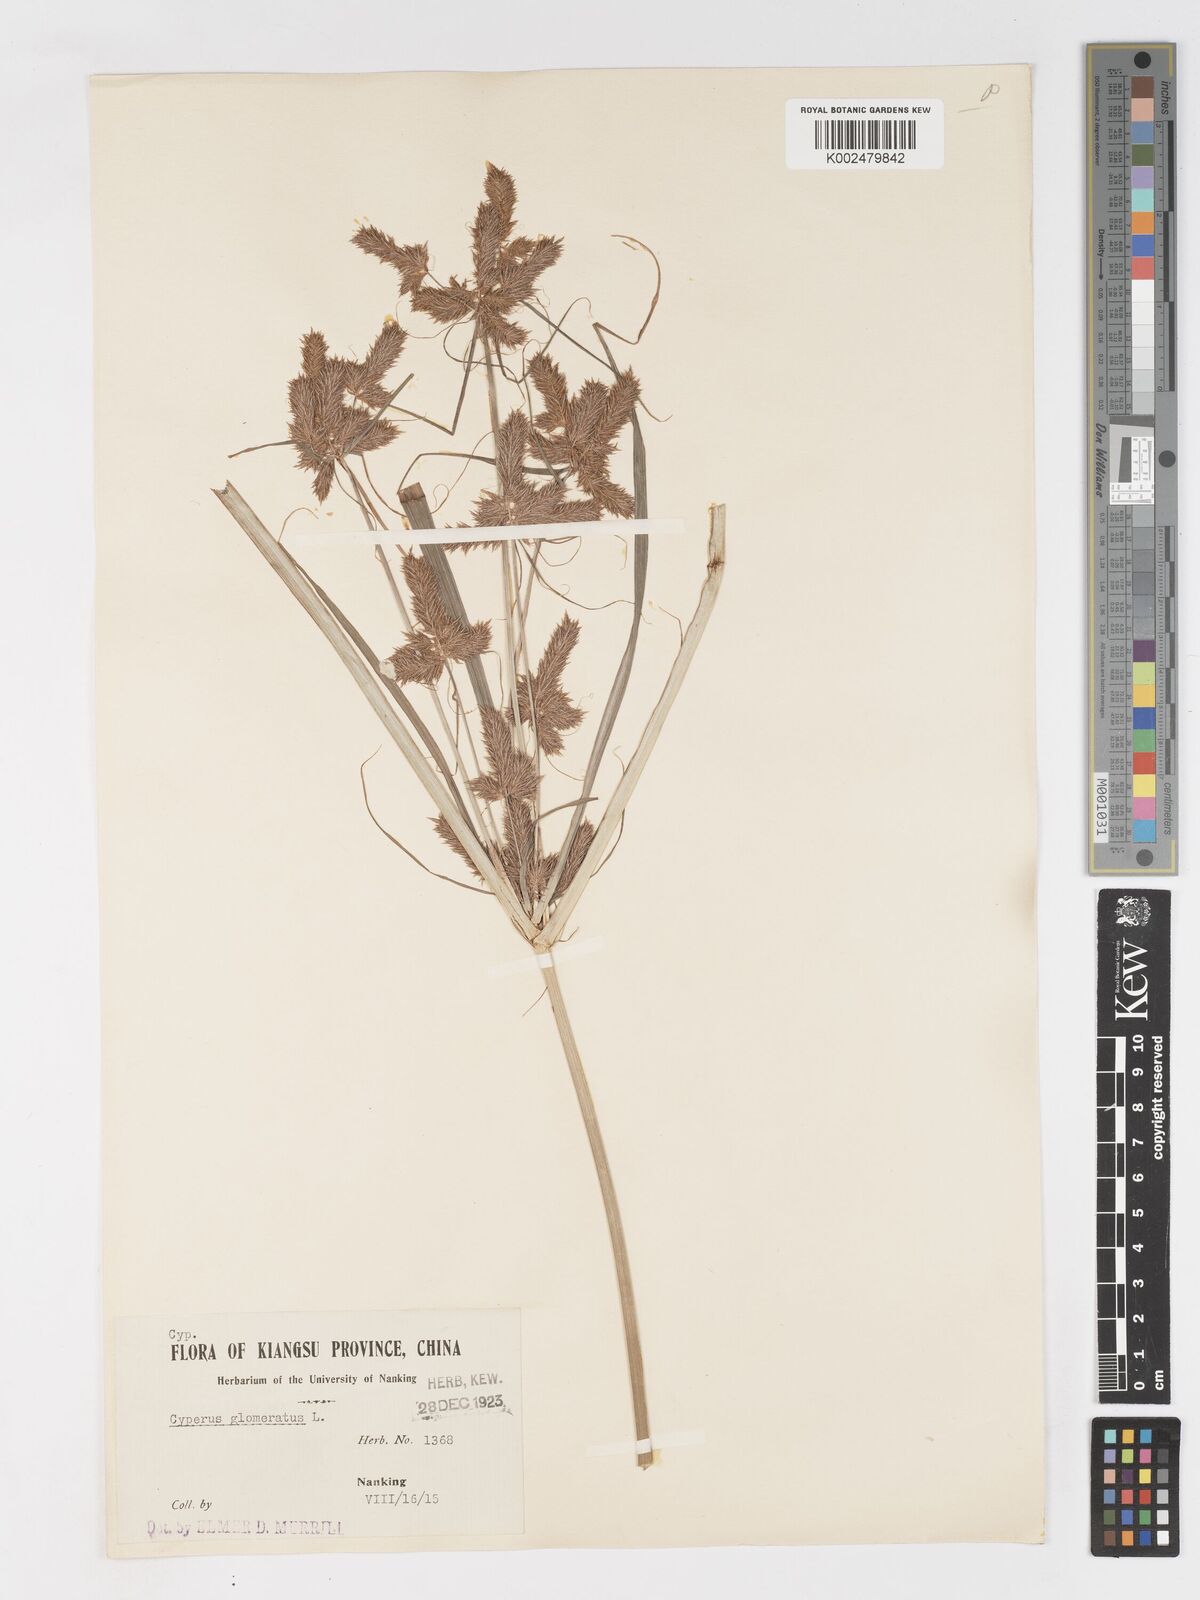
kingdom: Plantae
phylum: Tracheophyta
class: Liliopsida
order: Poales
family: Cyperaceae
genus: Cyperus
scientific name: Cyperus glomeratus
